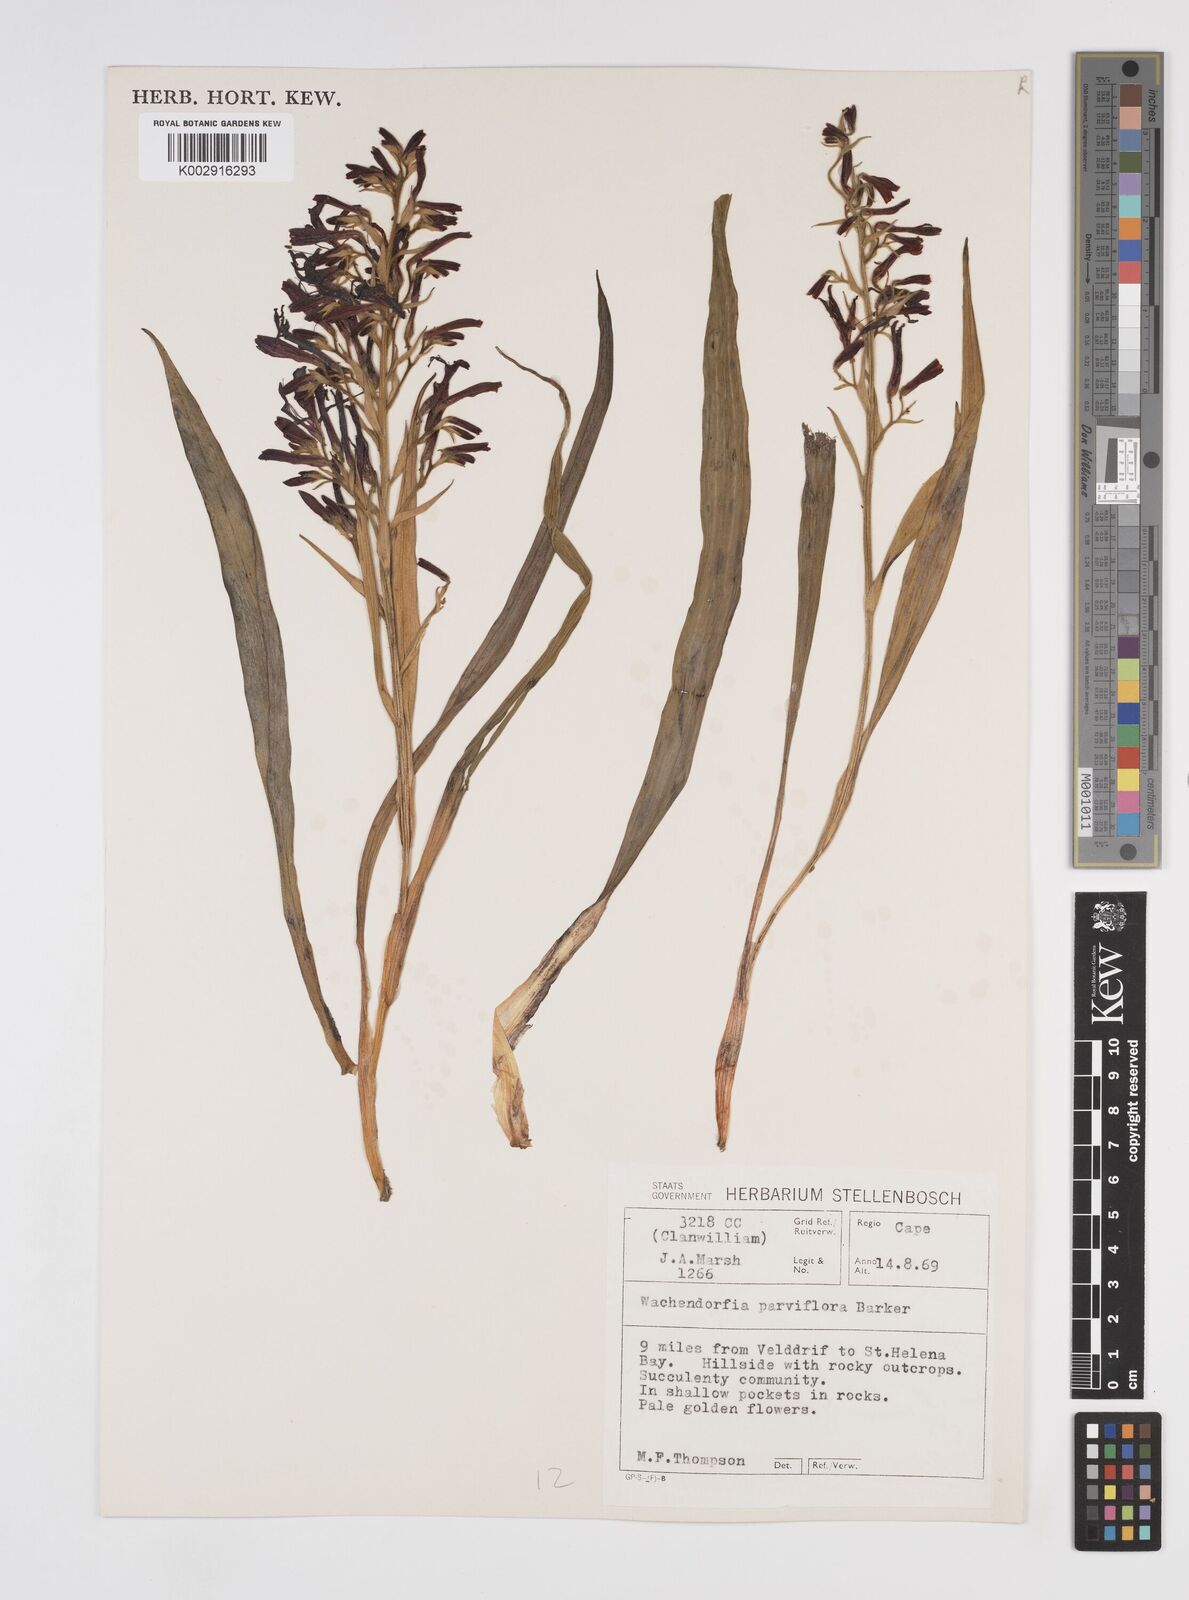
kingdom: Plantae
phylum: Tracheophyta
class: Liliopsida
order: Commelinales
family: Haemodoraceae
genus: Wachendorfia
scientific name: Wachendorfia multiflora
